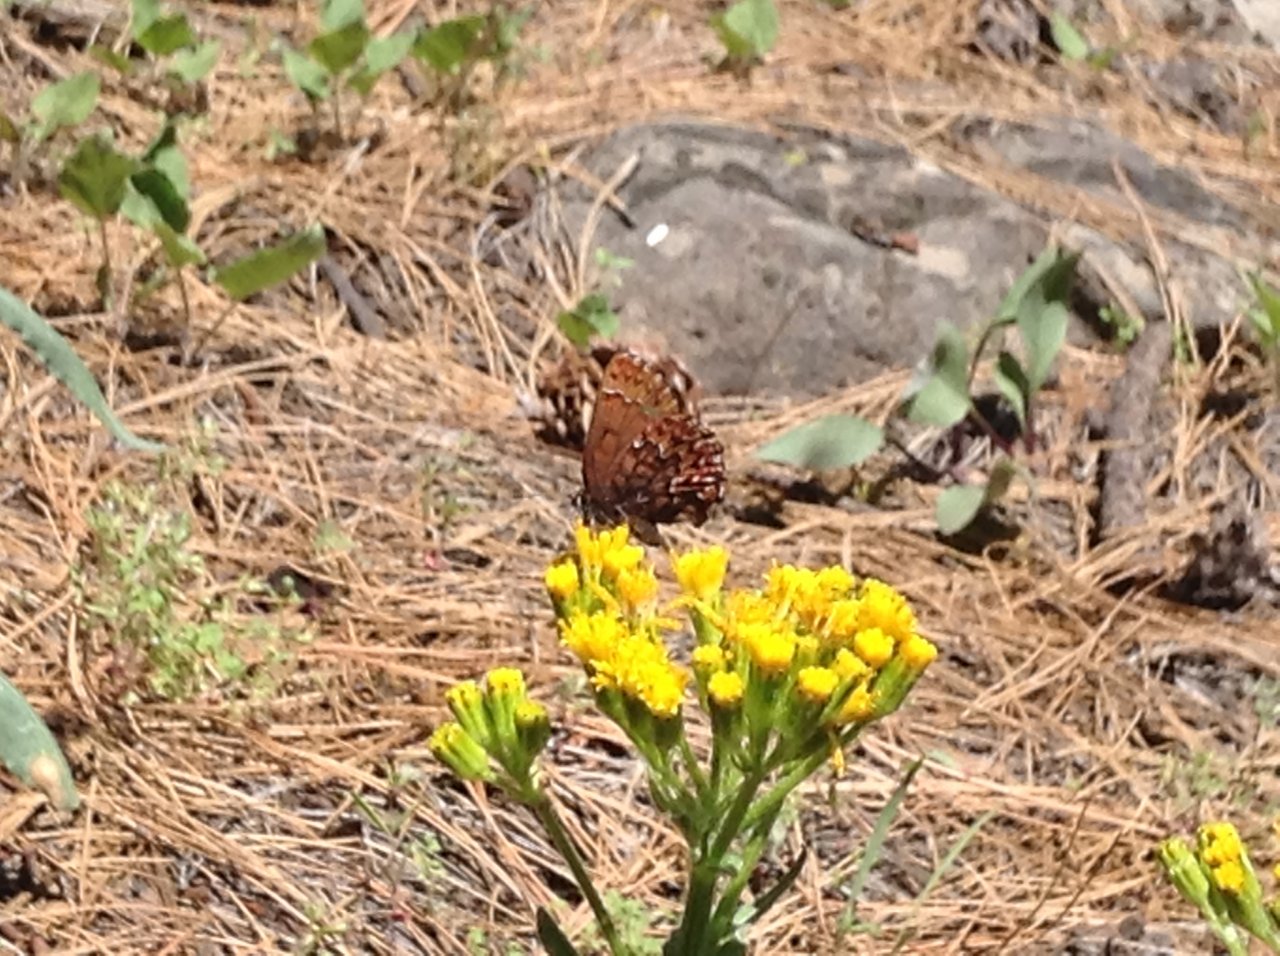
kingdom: Animalia
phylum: Arthropoda
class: Insecta
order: Lepidoptera
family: Lycaenidae
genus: Incisalia
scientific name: Incisalia eryphon
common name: Western Pine Elfin
